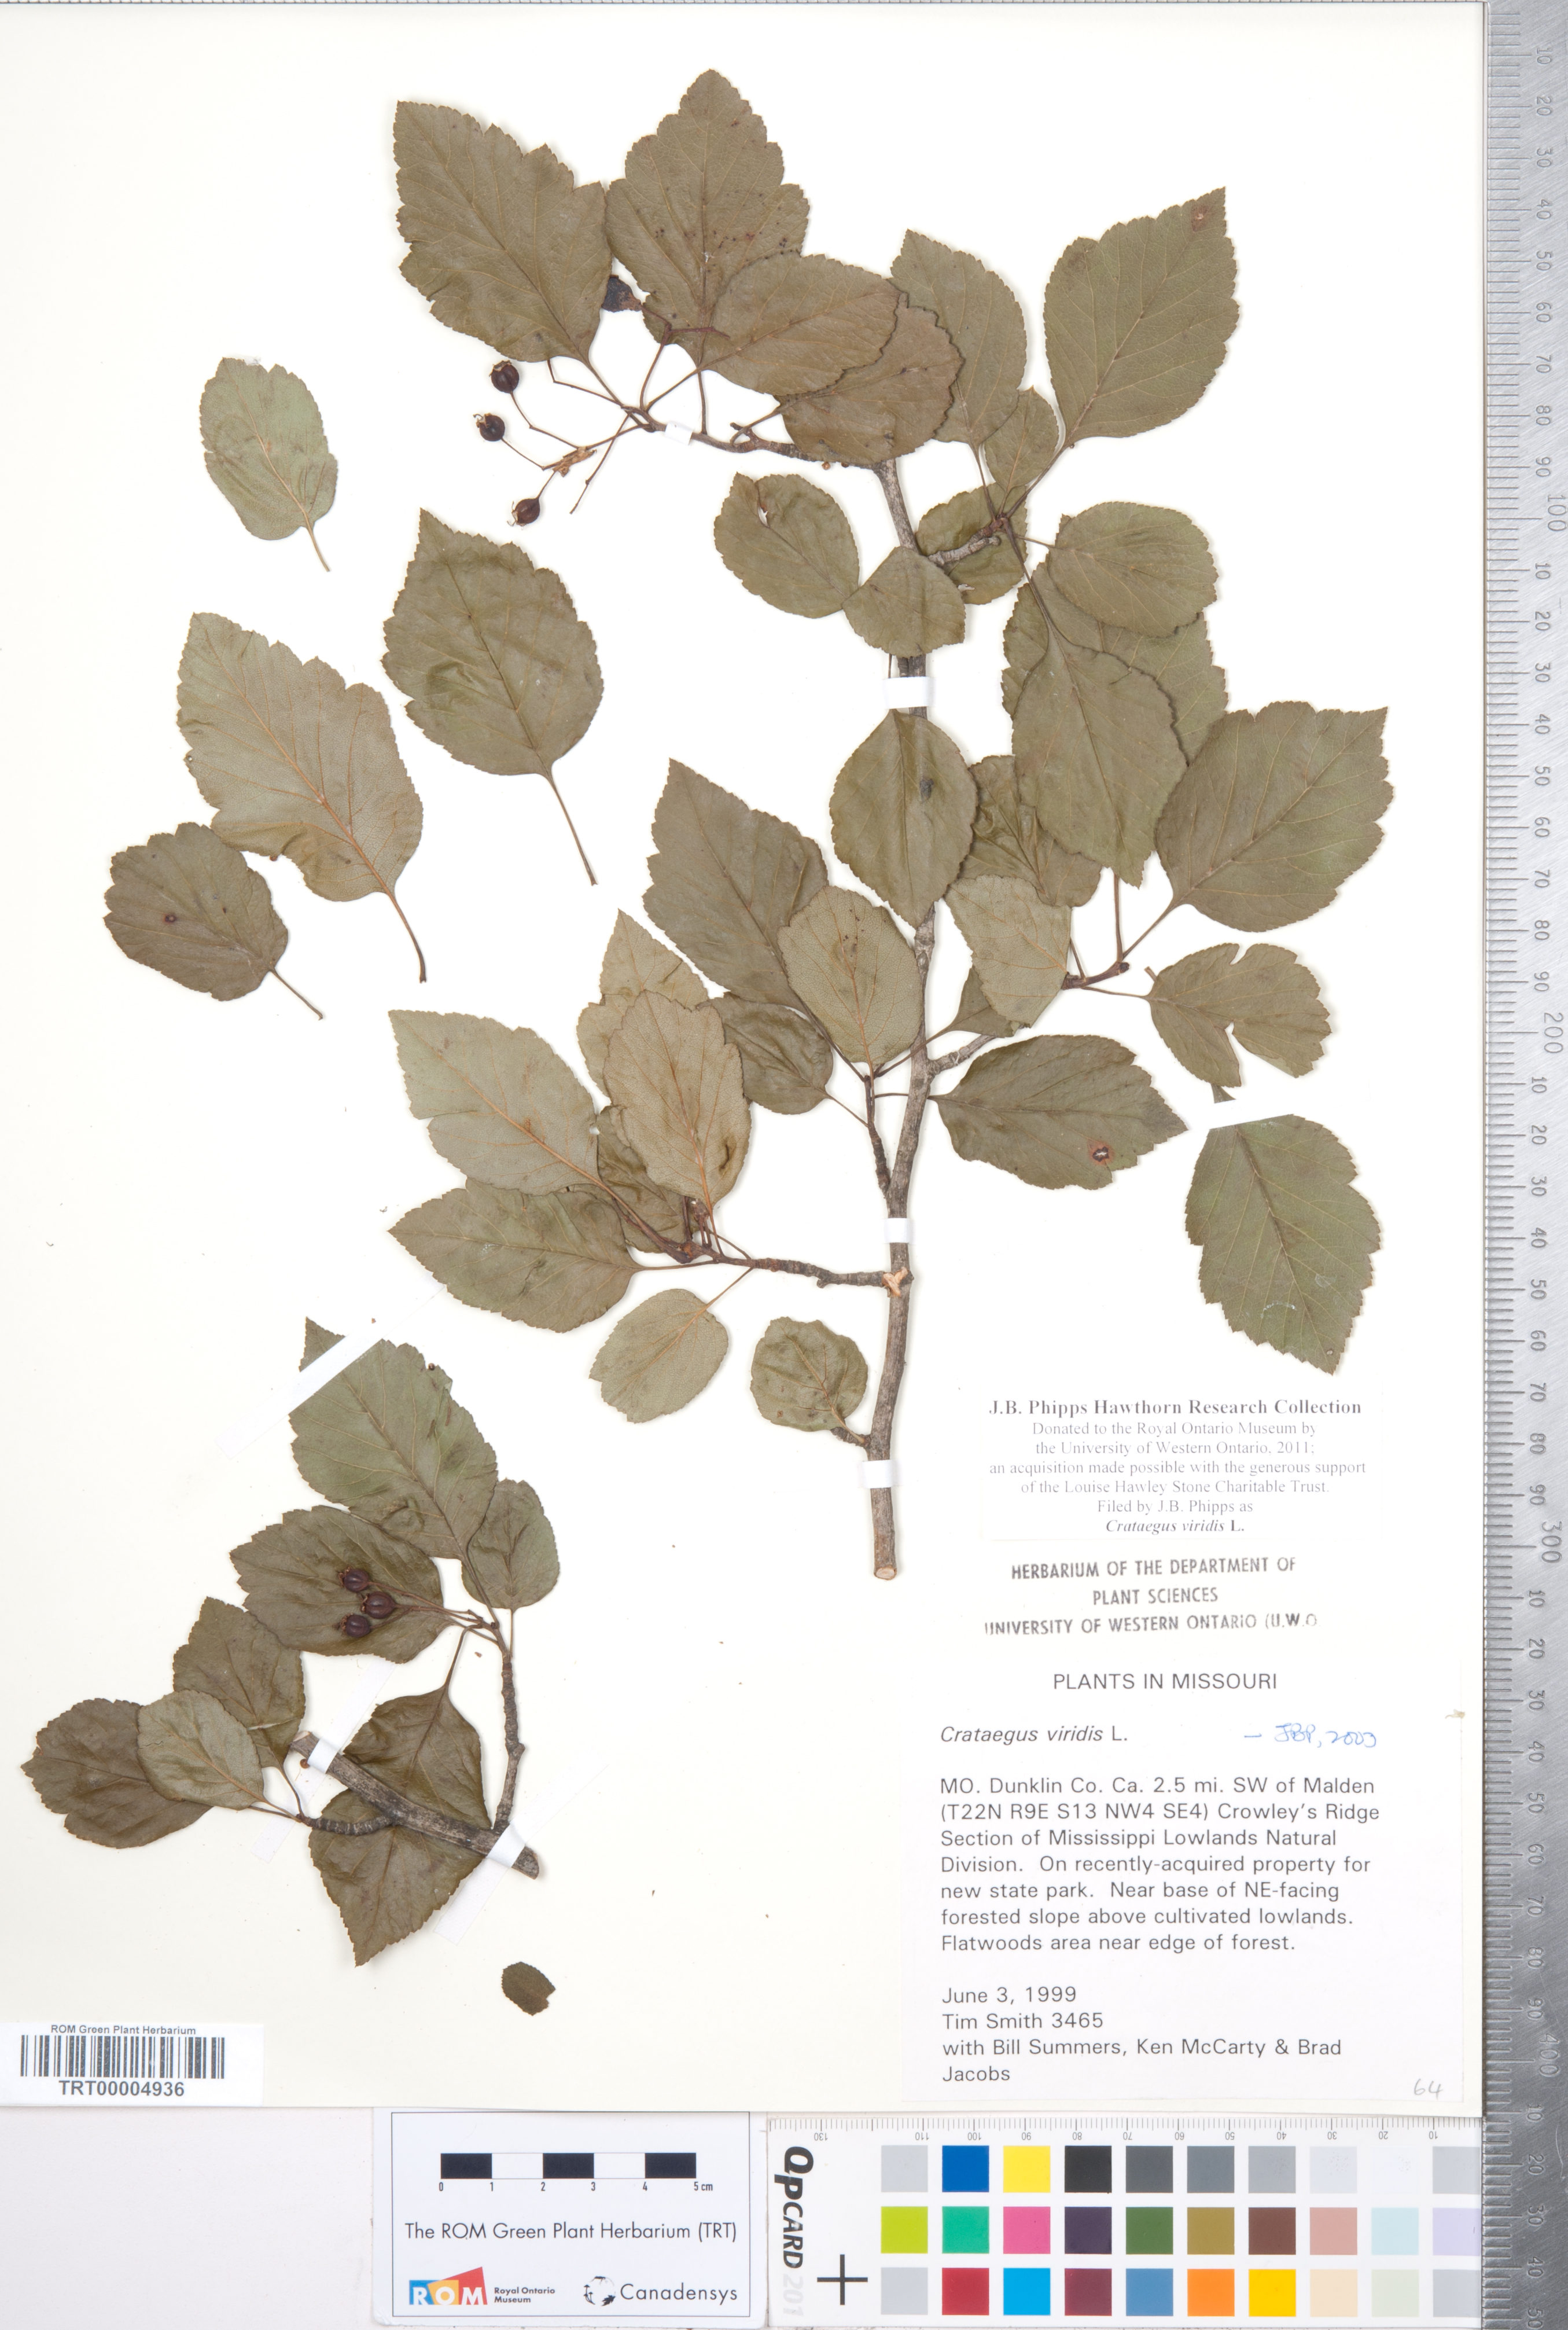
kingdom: Plantae
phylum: Tracheophyta
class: Magnoliopsida
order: Rosales
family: Rosaceae
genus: Crataegus
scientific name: Crataegus viridis
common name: Southernthorn
